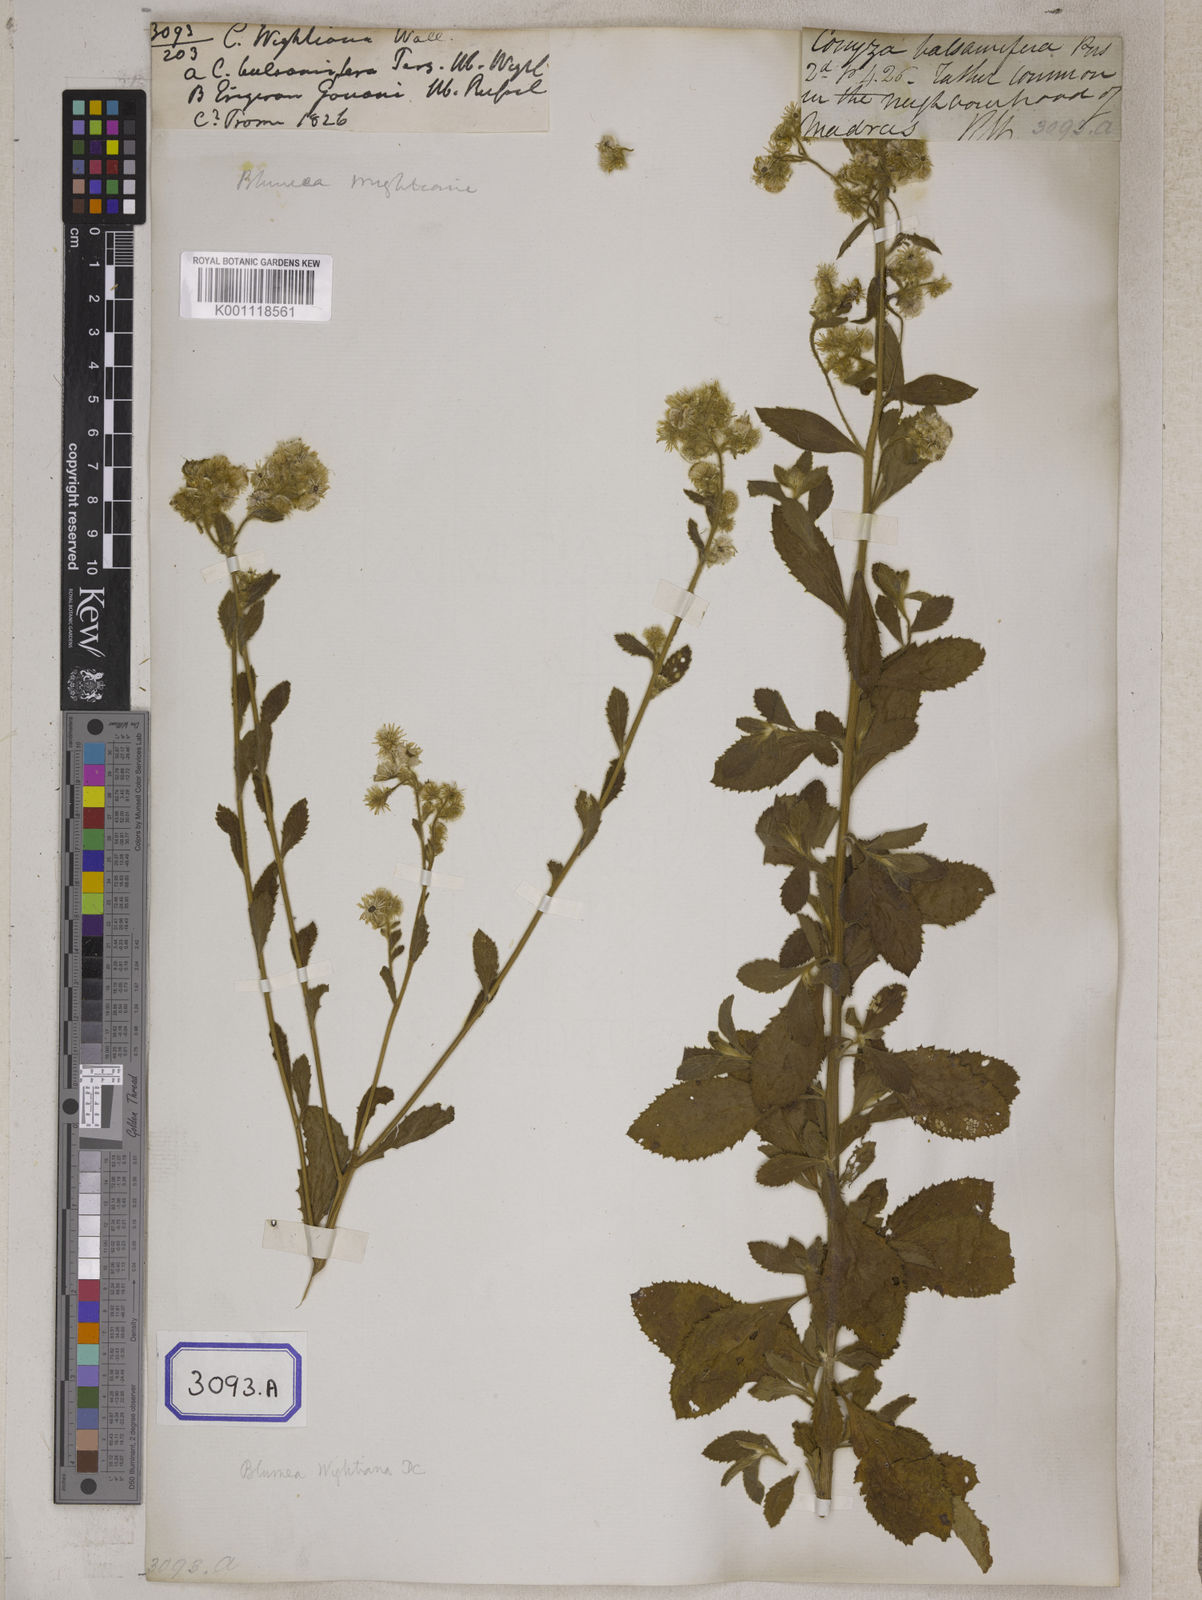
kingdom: Plantae
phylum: Tracheophyta
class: Magnoliopsida
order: Asterales
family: Asteraceae
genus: Strobocalyx
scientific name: Strobocalyx arborea
